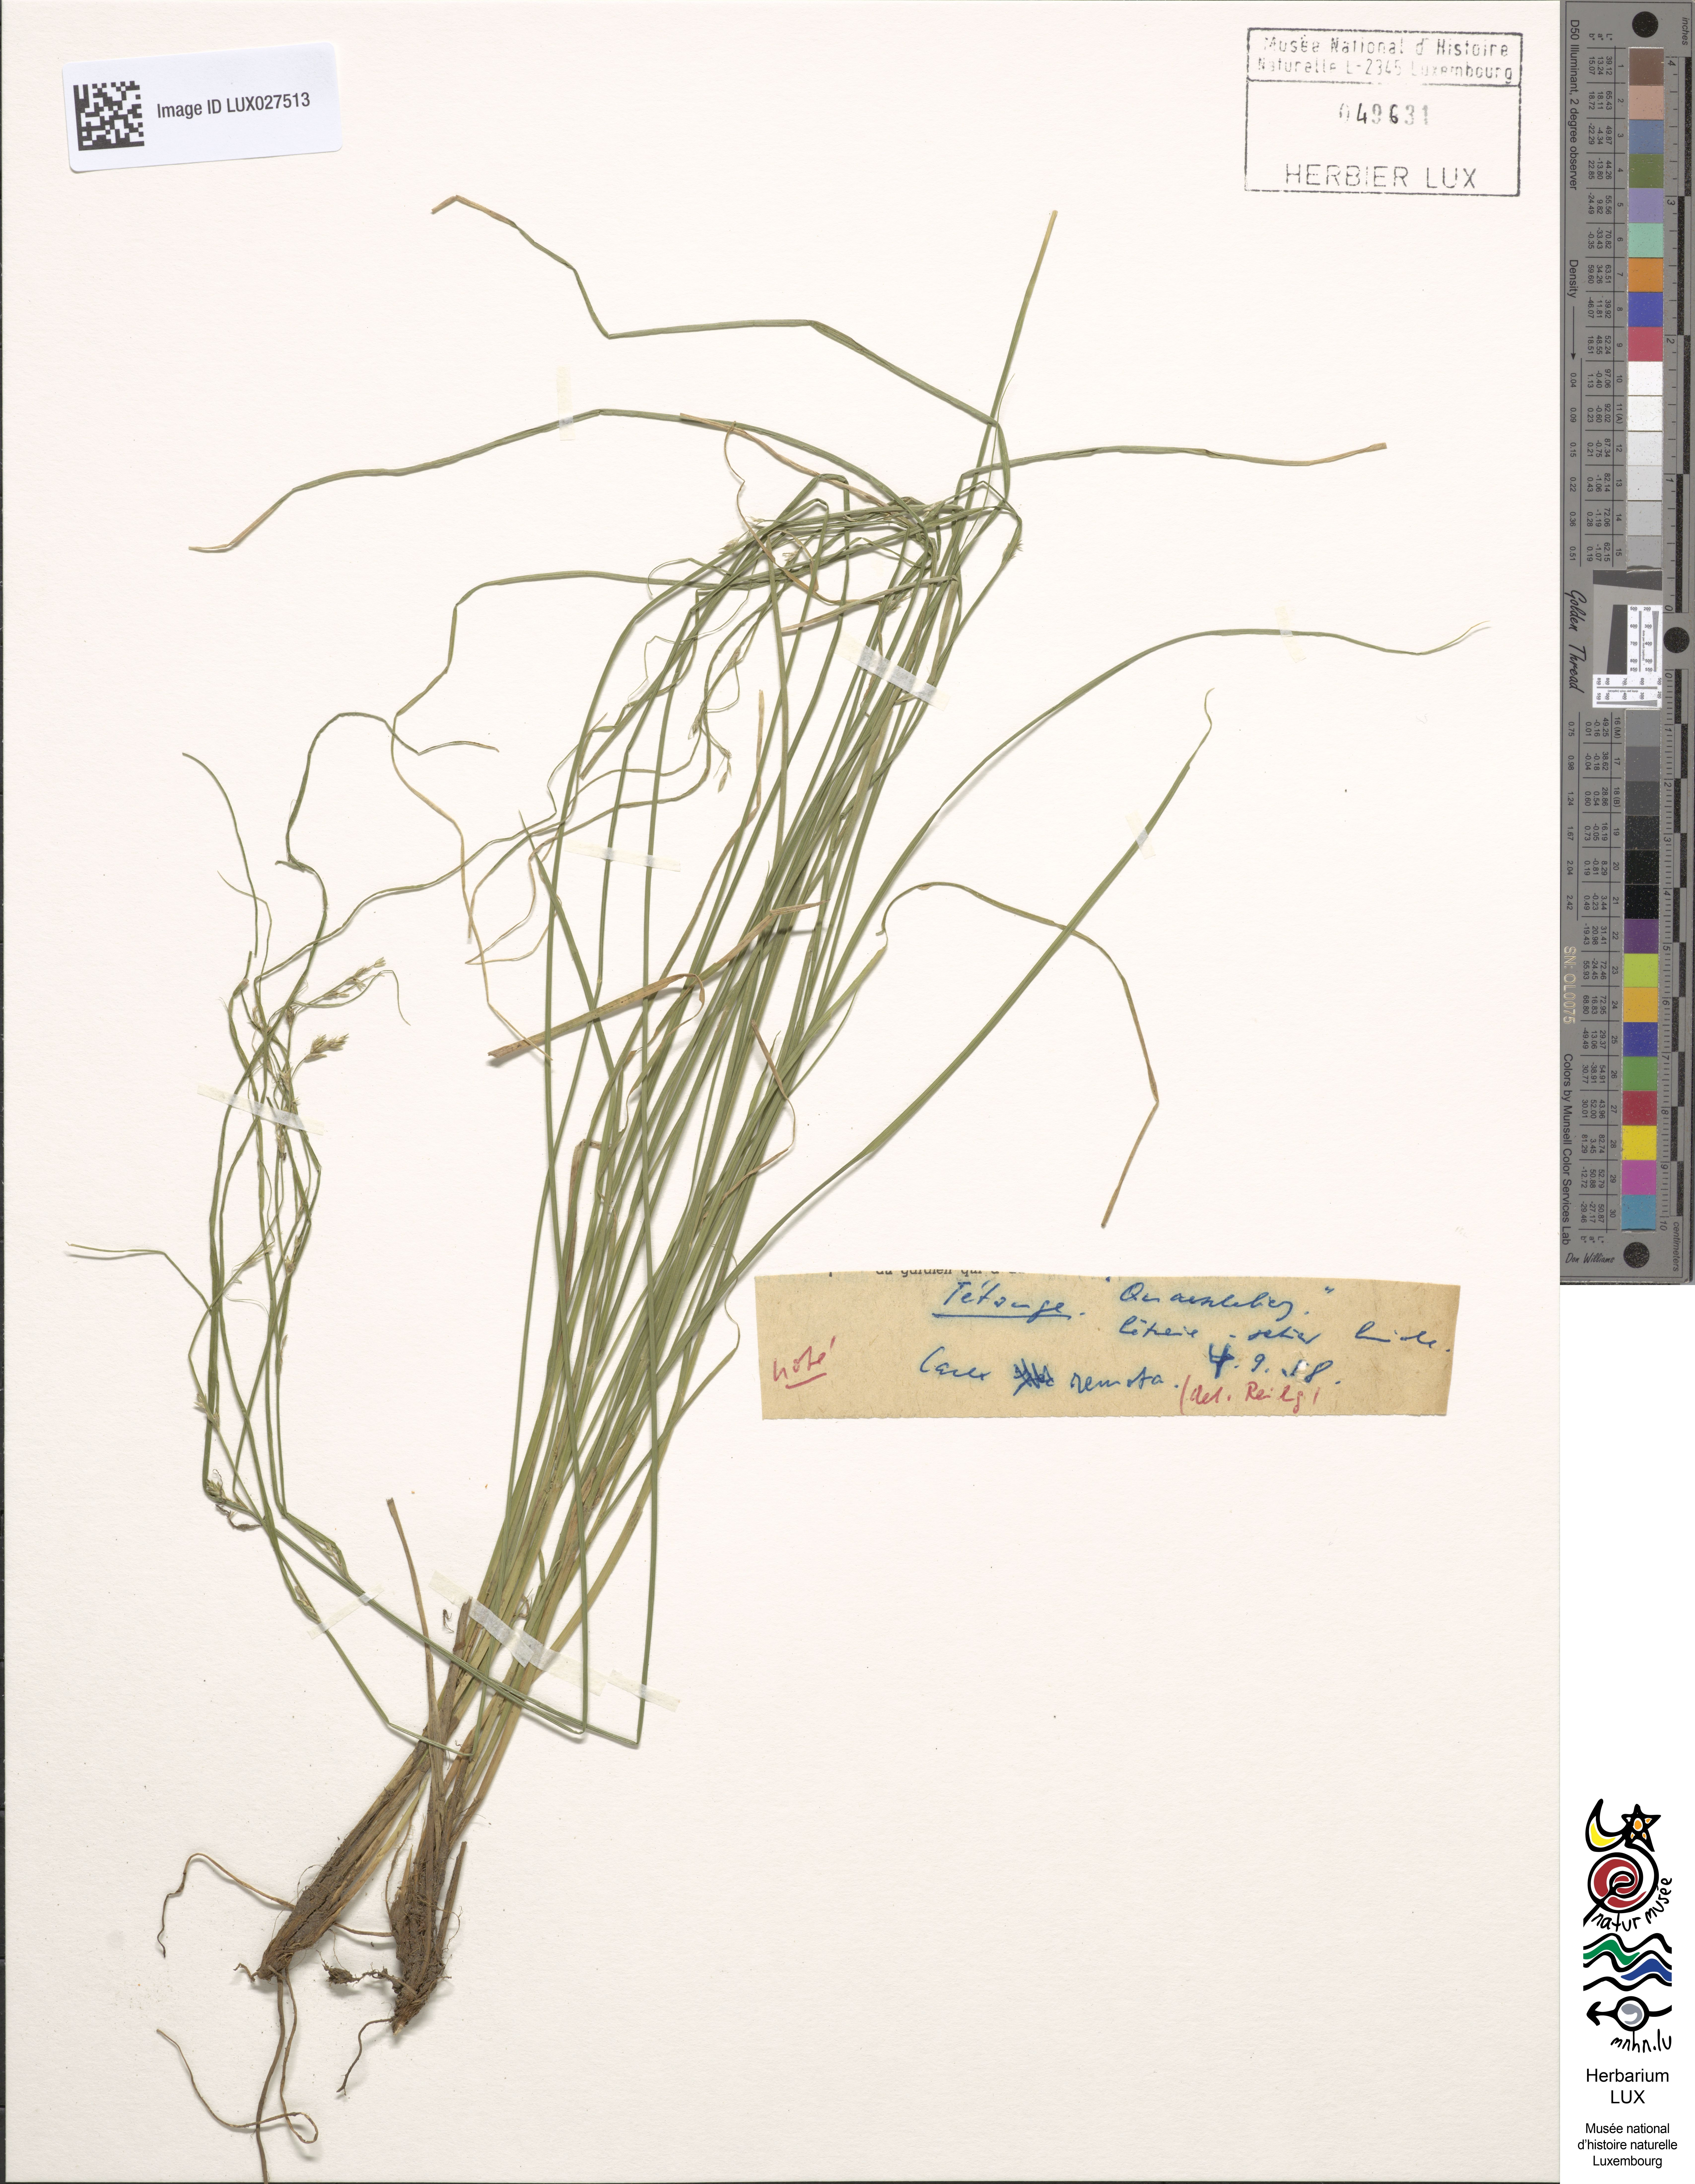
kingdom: Plantae
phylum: Tracheophyta
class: Liliopsida
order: Poales
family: Cyperaceae
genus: Carex
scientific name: Carex remota
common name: Remote sedge
